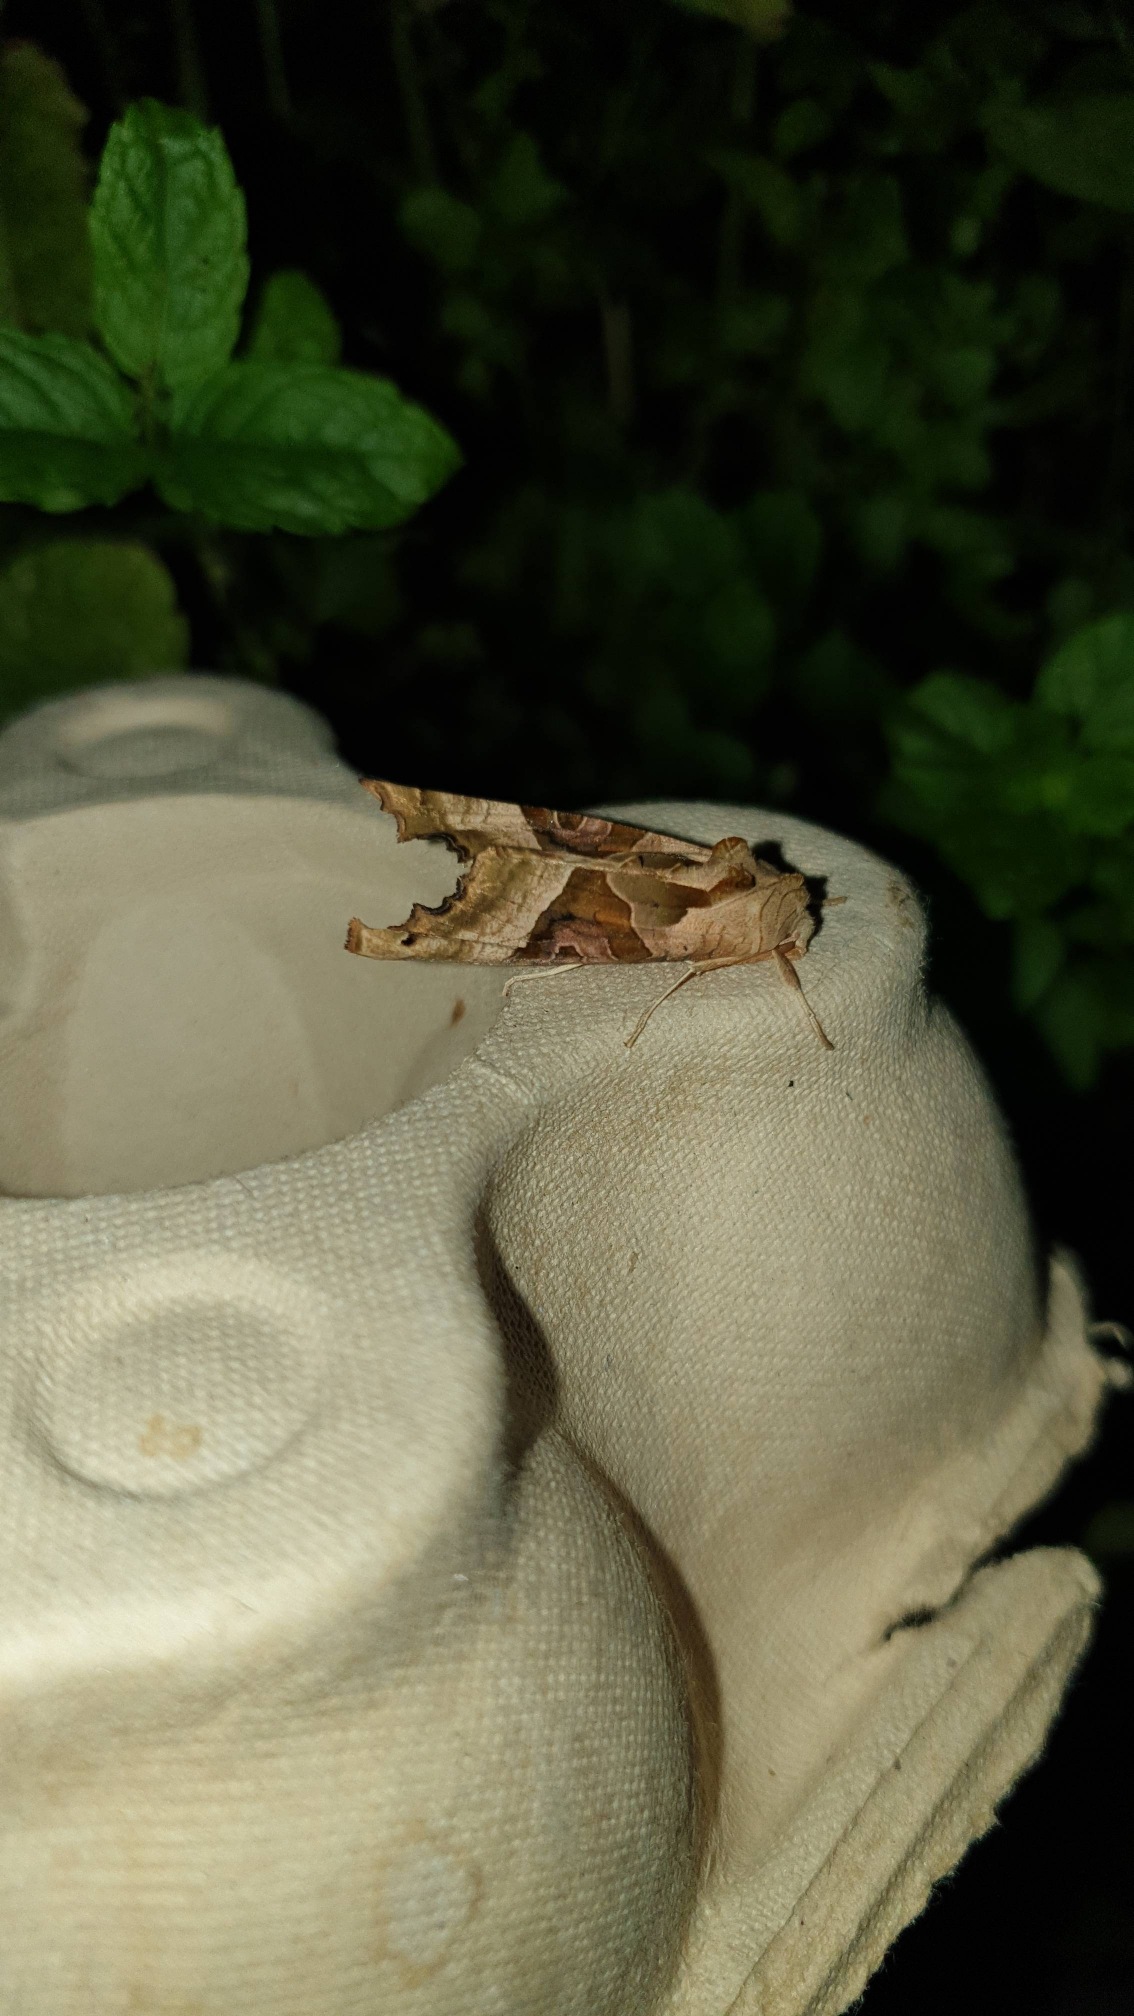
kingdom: Animalia
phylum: Arthropoda
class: Insecta
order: Lepidoptera
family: Noctuidae
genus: Phlogophora
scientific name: Phlogophora meticulosa
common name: Agatugle
